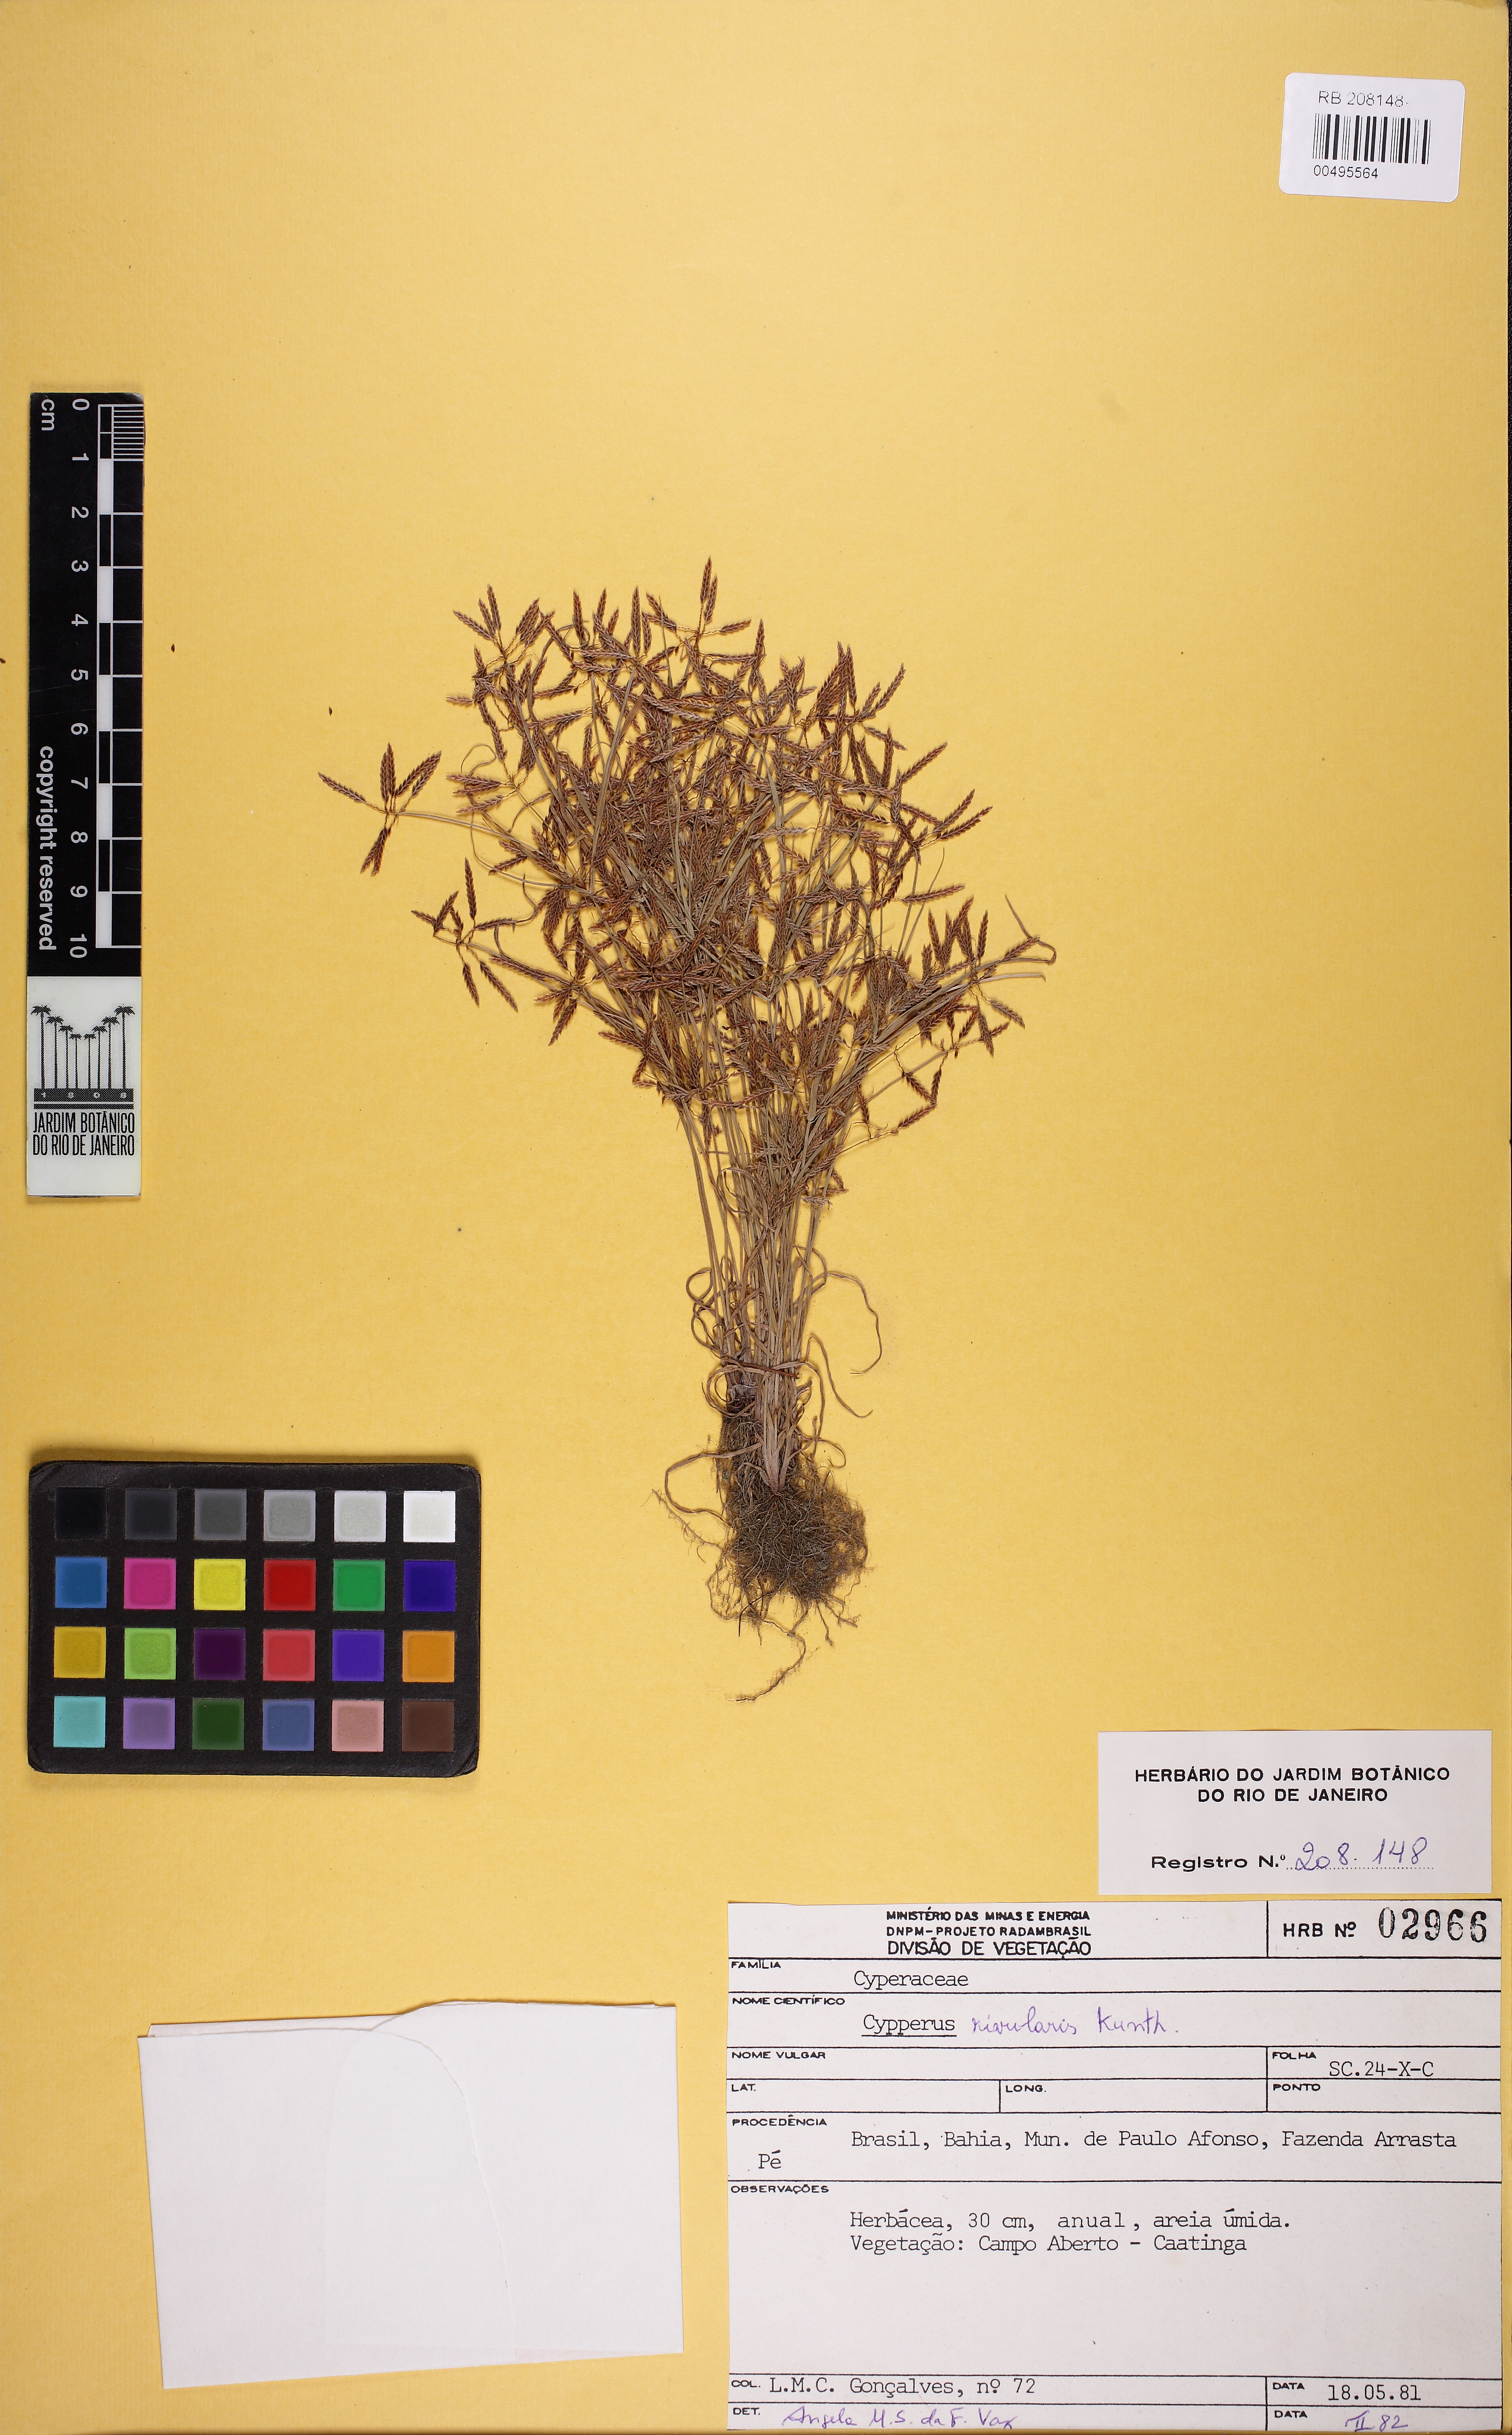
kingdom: Plantae
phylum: Tracheophyta
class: Liliopsida
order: Poales
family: Cyperaceae
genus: Cyperus
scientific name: Cyperus fugax
